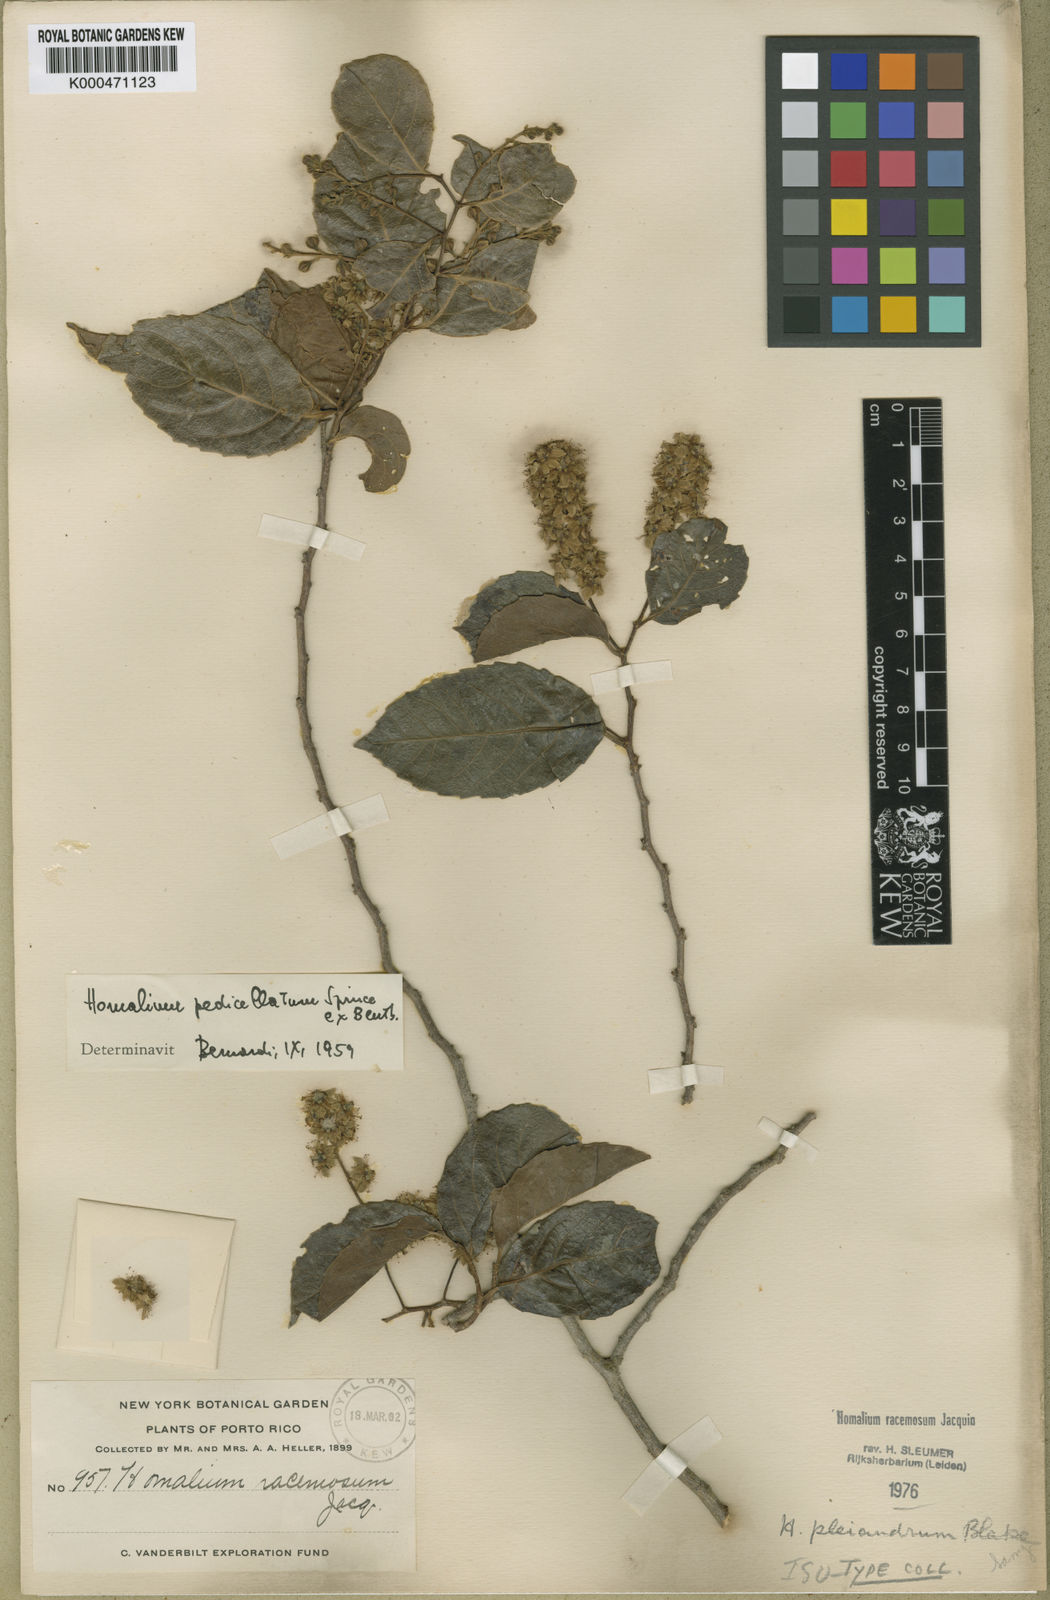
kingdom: Plantae
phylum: Tracheophyta
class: Magnoliopsida
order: Malpighiales
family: Salicaceae
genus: Homalium
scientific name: Homalium racemosum
